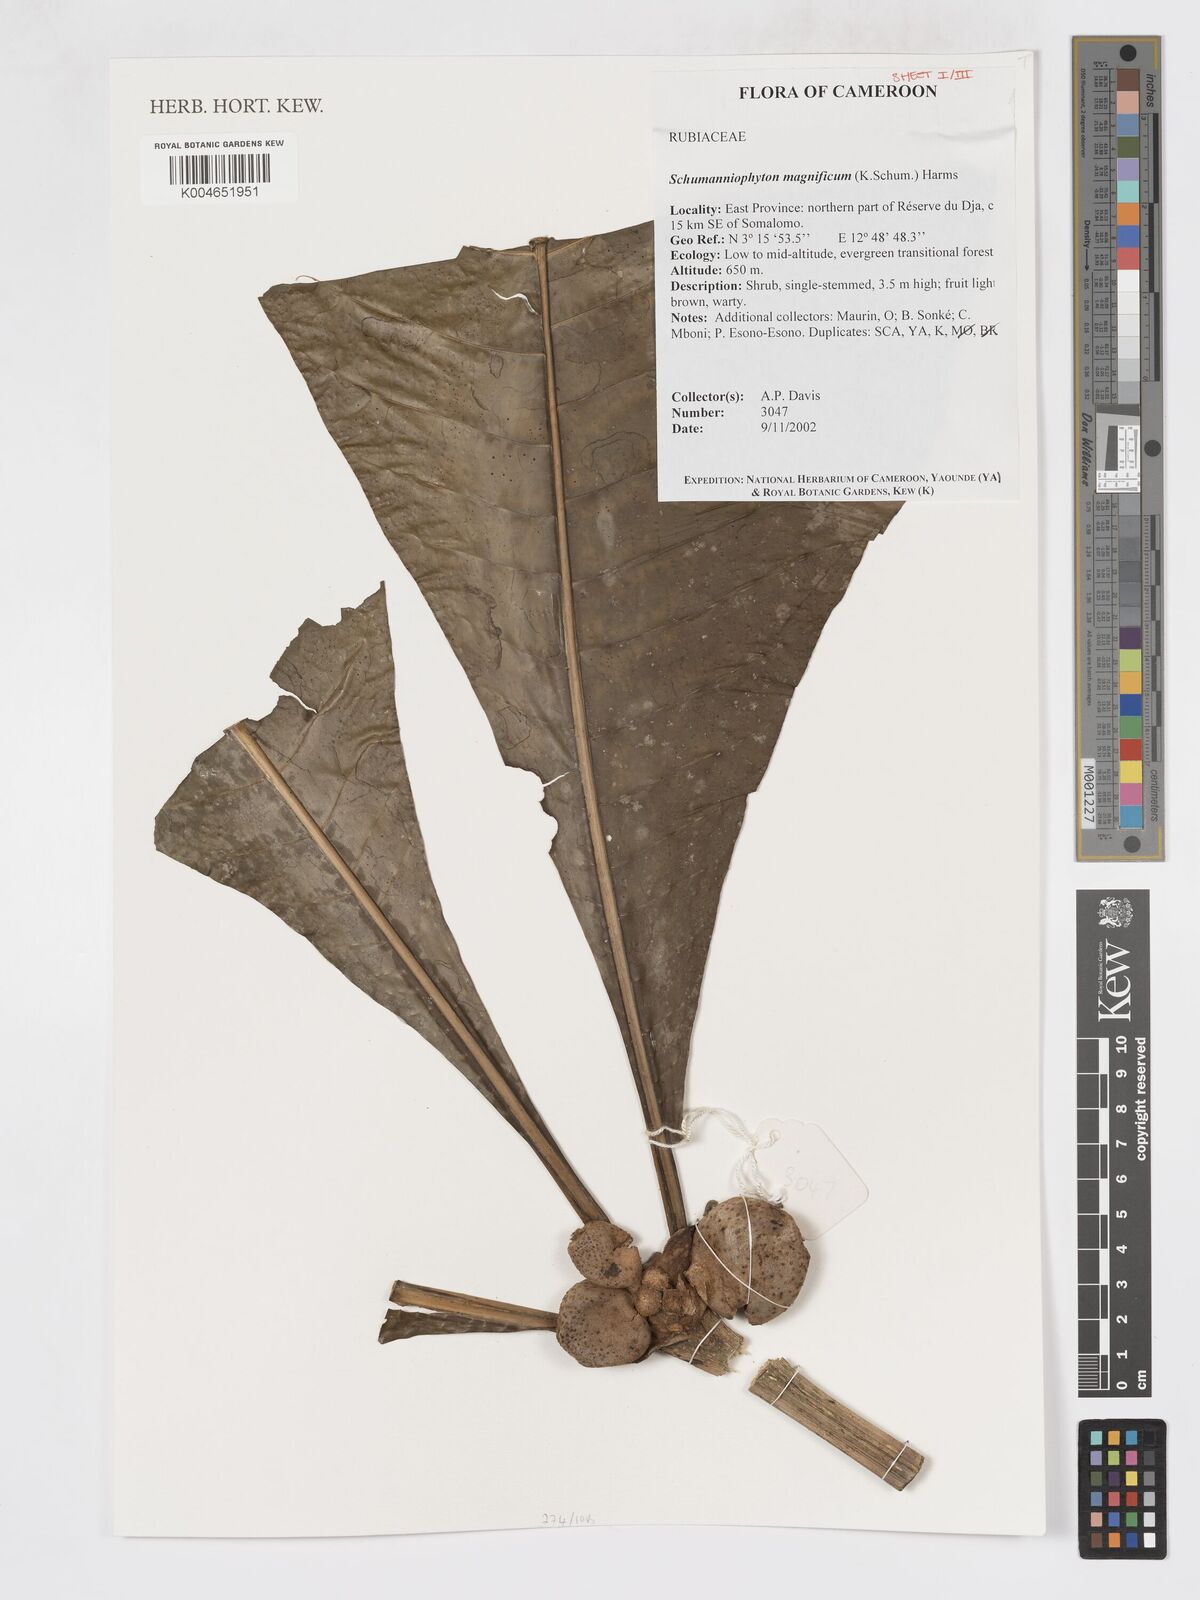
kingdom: Plantae
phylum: Tracheophyta
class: Magnoliopsida
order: Gentianales
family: Rubiaceae
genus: Schumanniophyton
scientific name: Schumanniophyton magnificum
